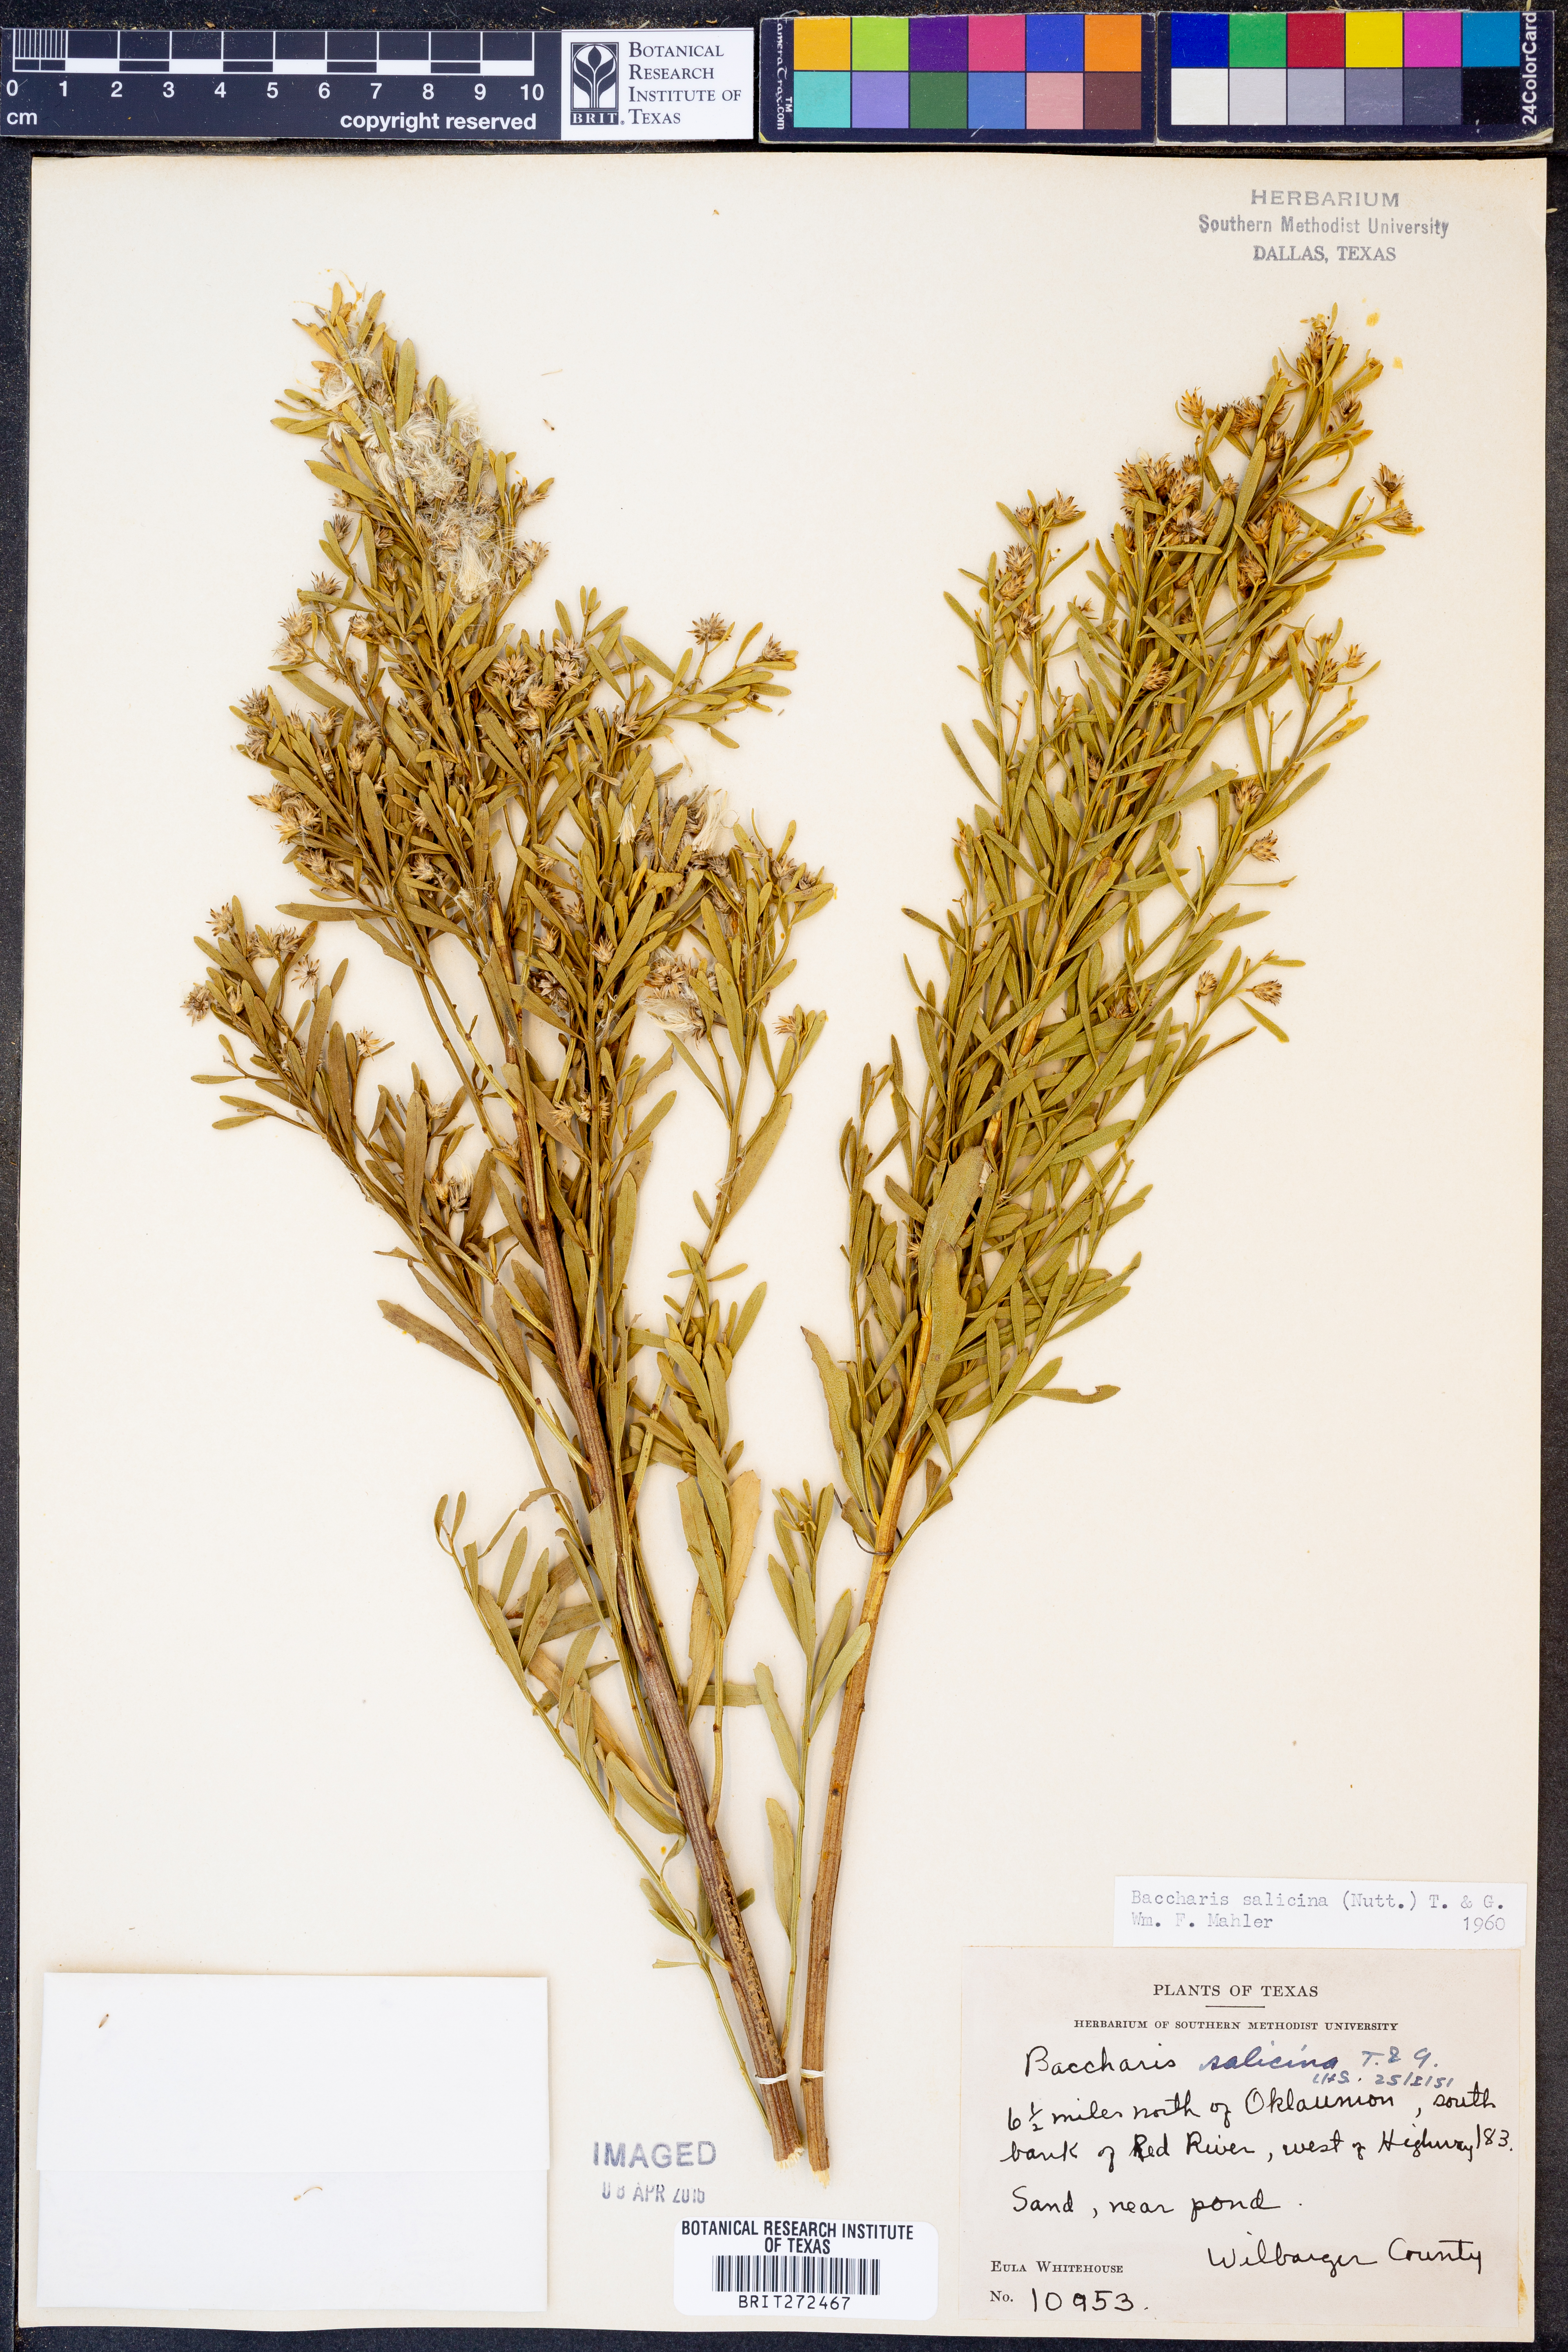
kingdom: Plantae
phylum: Tracheophyta
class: Magnoliopsida
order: Asterales
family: Asteraceae
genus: Baccharis
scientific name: Baccharis salicina
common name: Willow baccharis
